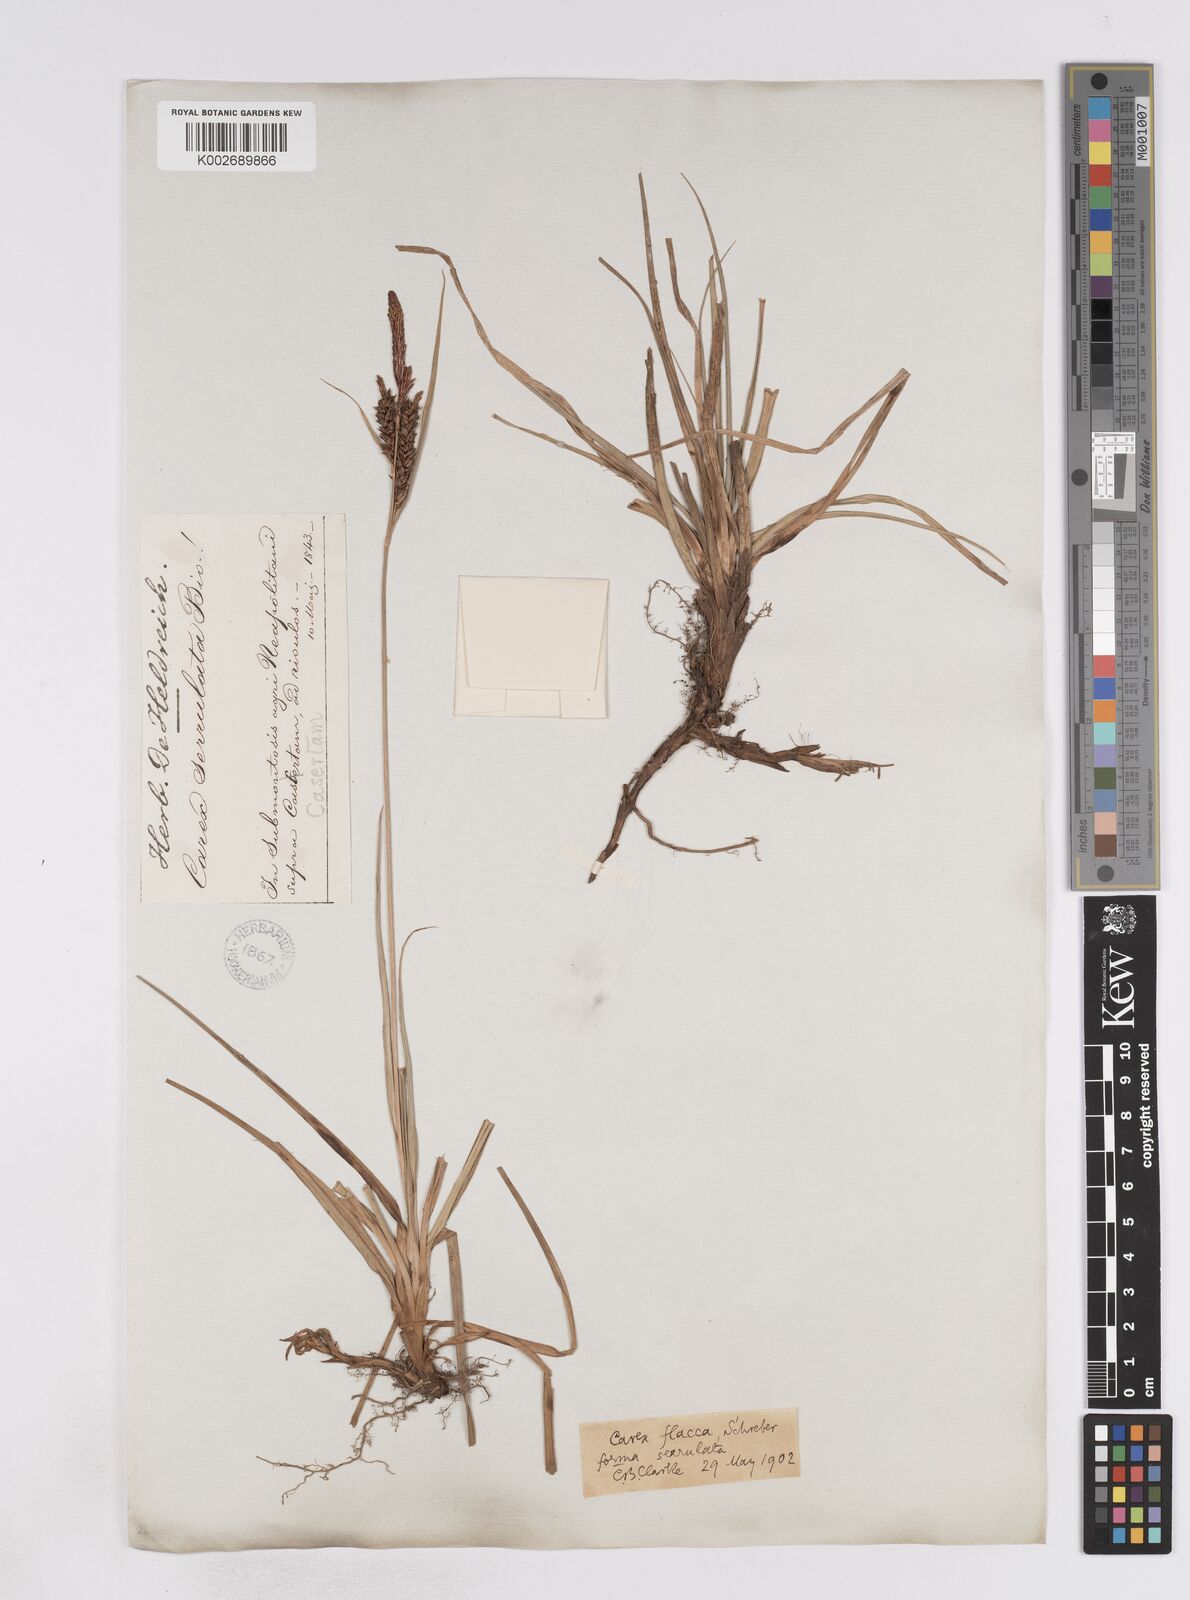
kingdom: Plantae
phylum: Tracheophyta
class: Liliopsida
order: Poales
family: Cyperaceae
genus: Carex
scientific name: Carex flacca
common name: Glaucous sedge
